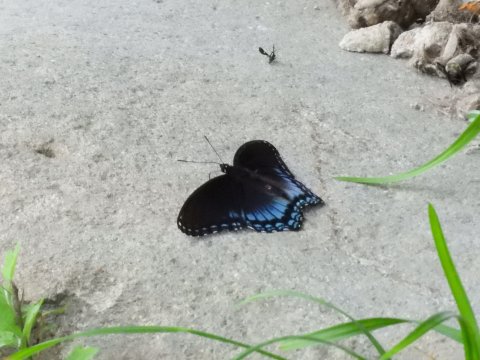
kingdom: Animalia
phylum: Arthropoda
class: Insecta
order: Lepidoptera
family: Nymphalidae
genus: Limenitis
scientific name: Limenitis arthemis
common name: Red-spotted Admiral
